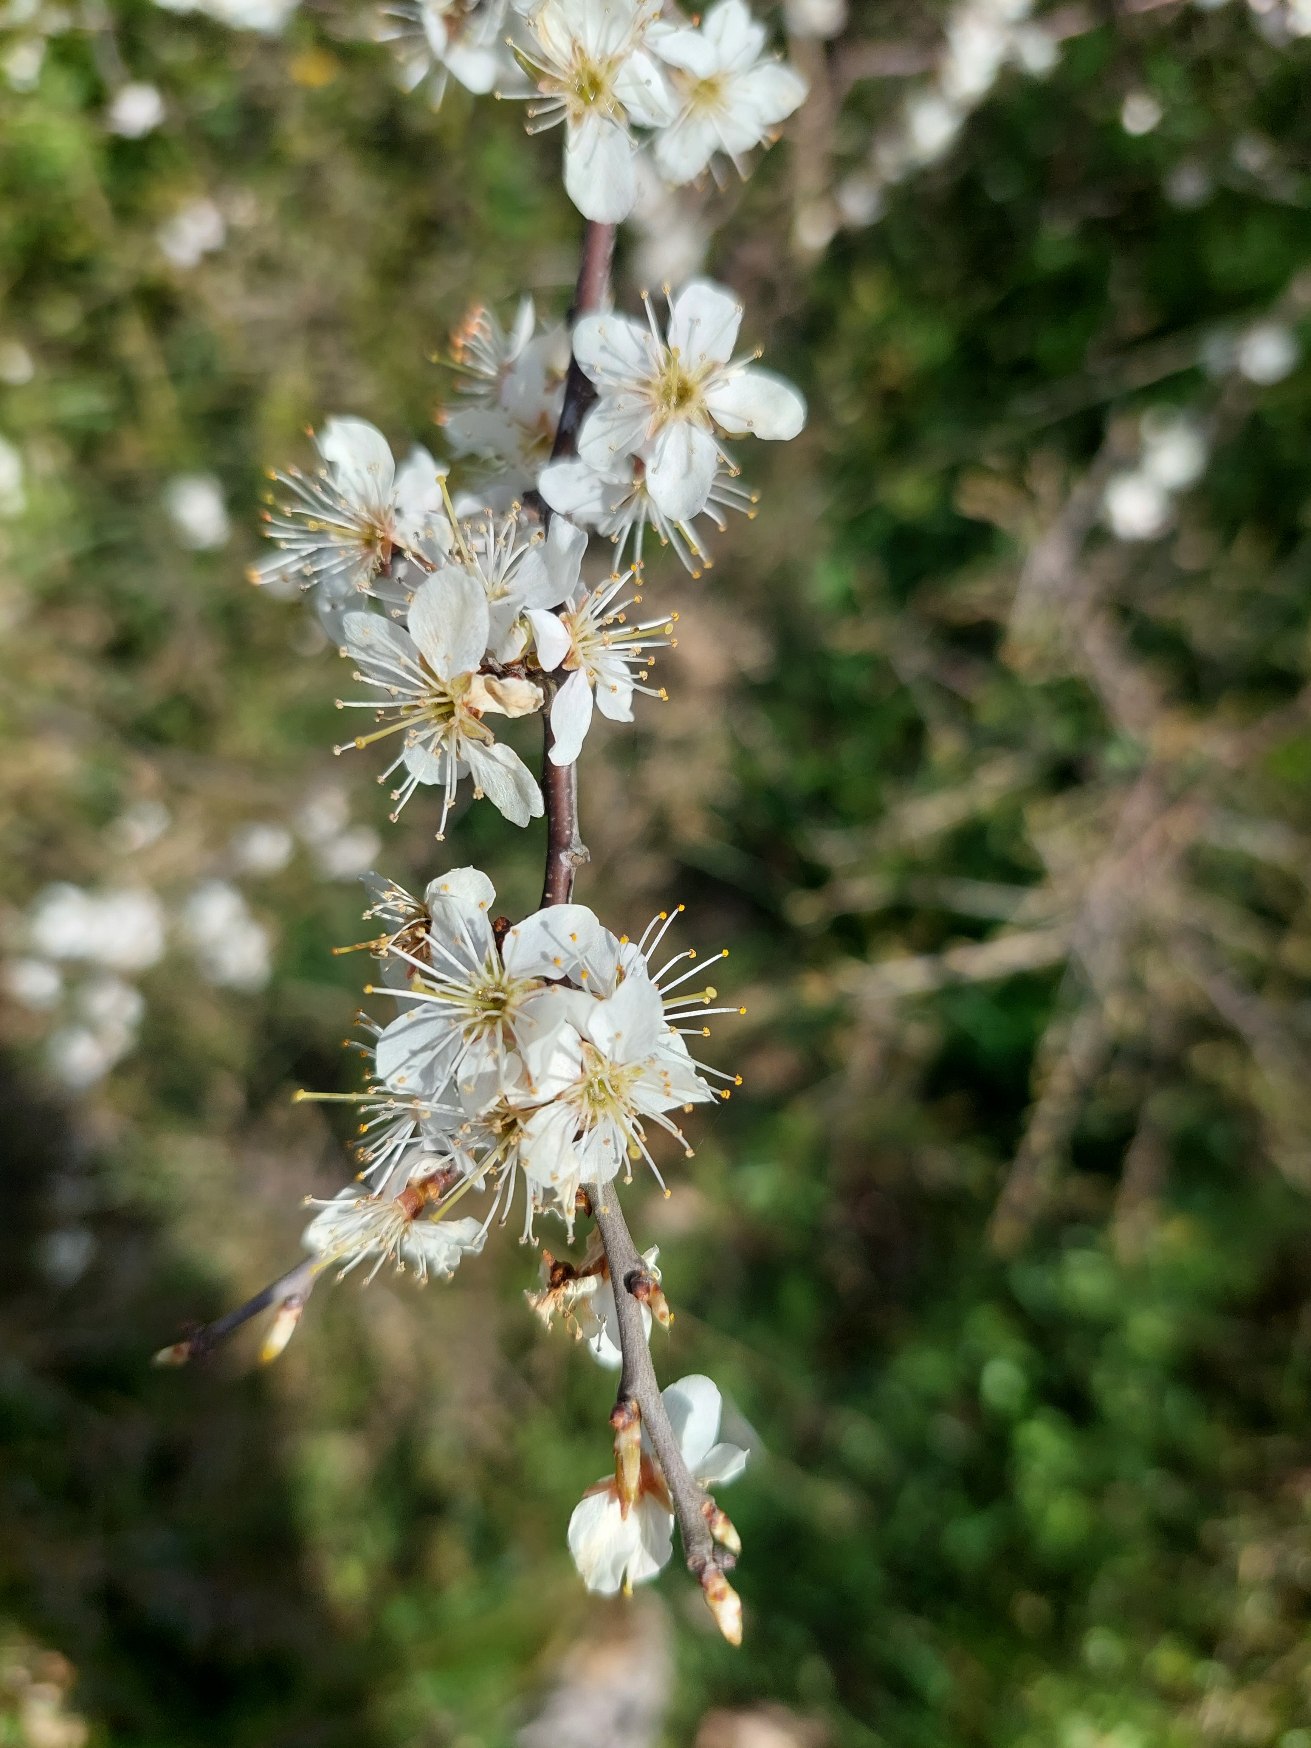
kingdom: Plantae
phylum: Tracheophyta
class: Magnoliopsida
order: Rosales
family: Rosaceae
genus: Prunus
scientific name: Prunus spinosa
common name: Slåen
